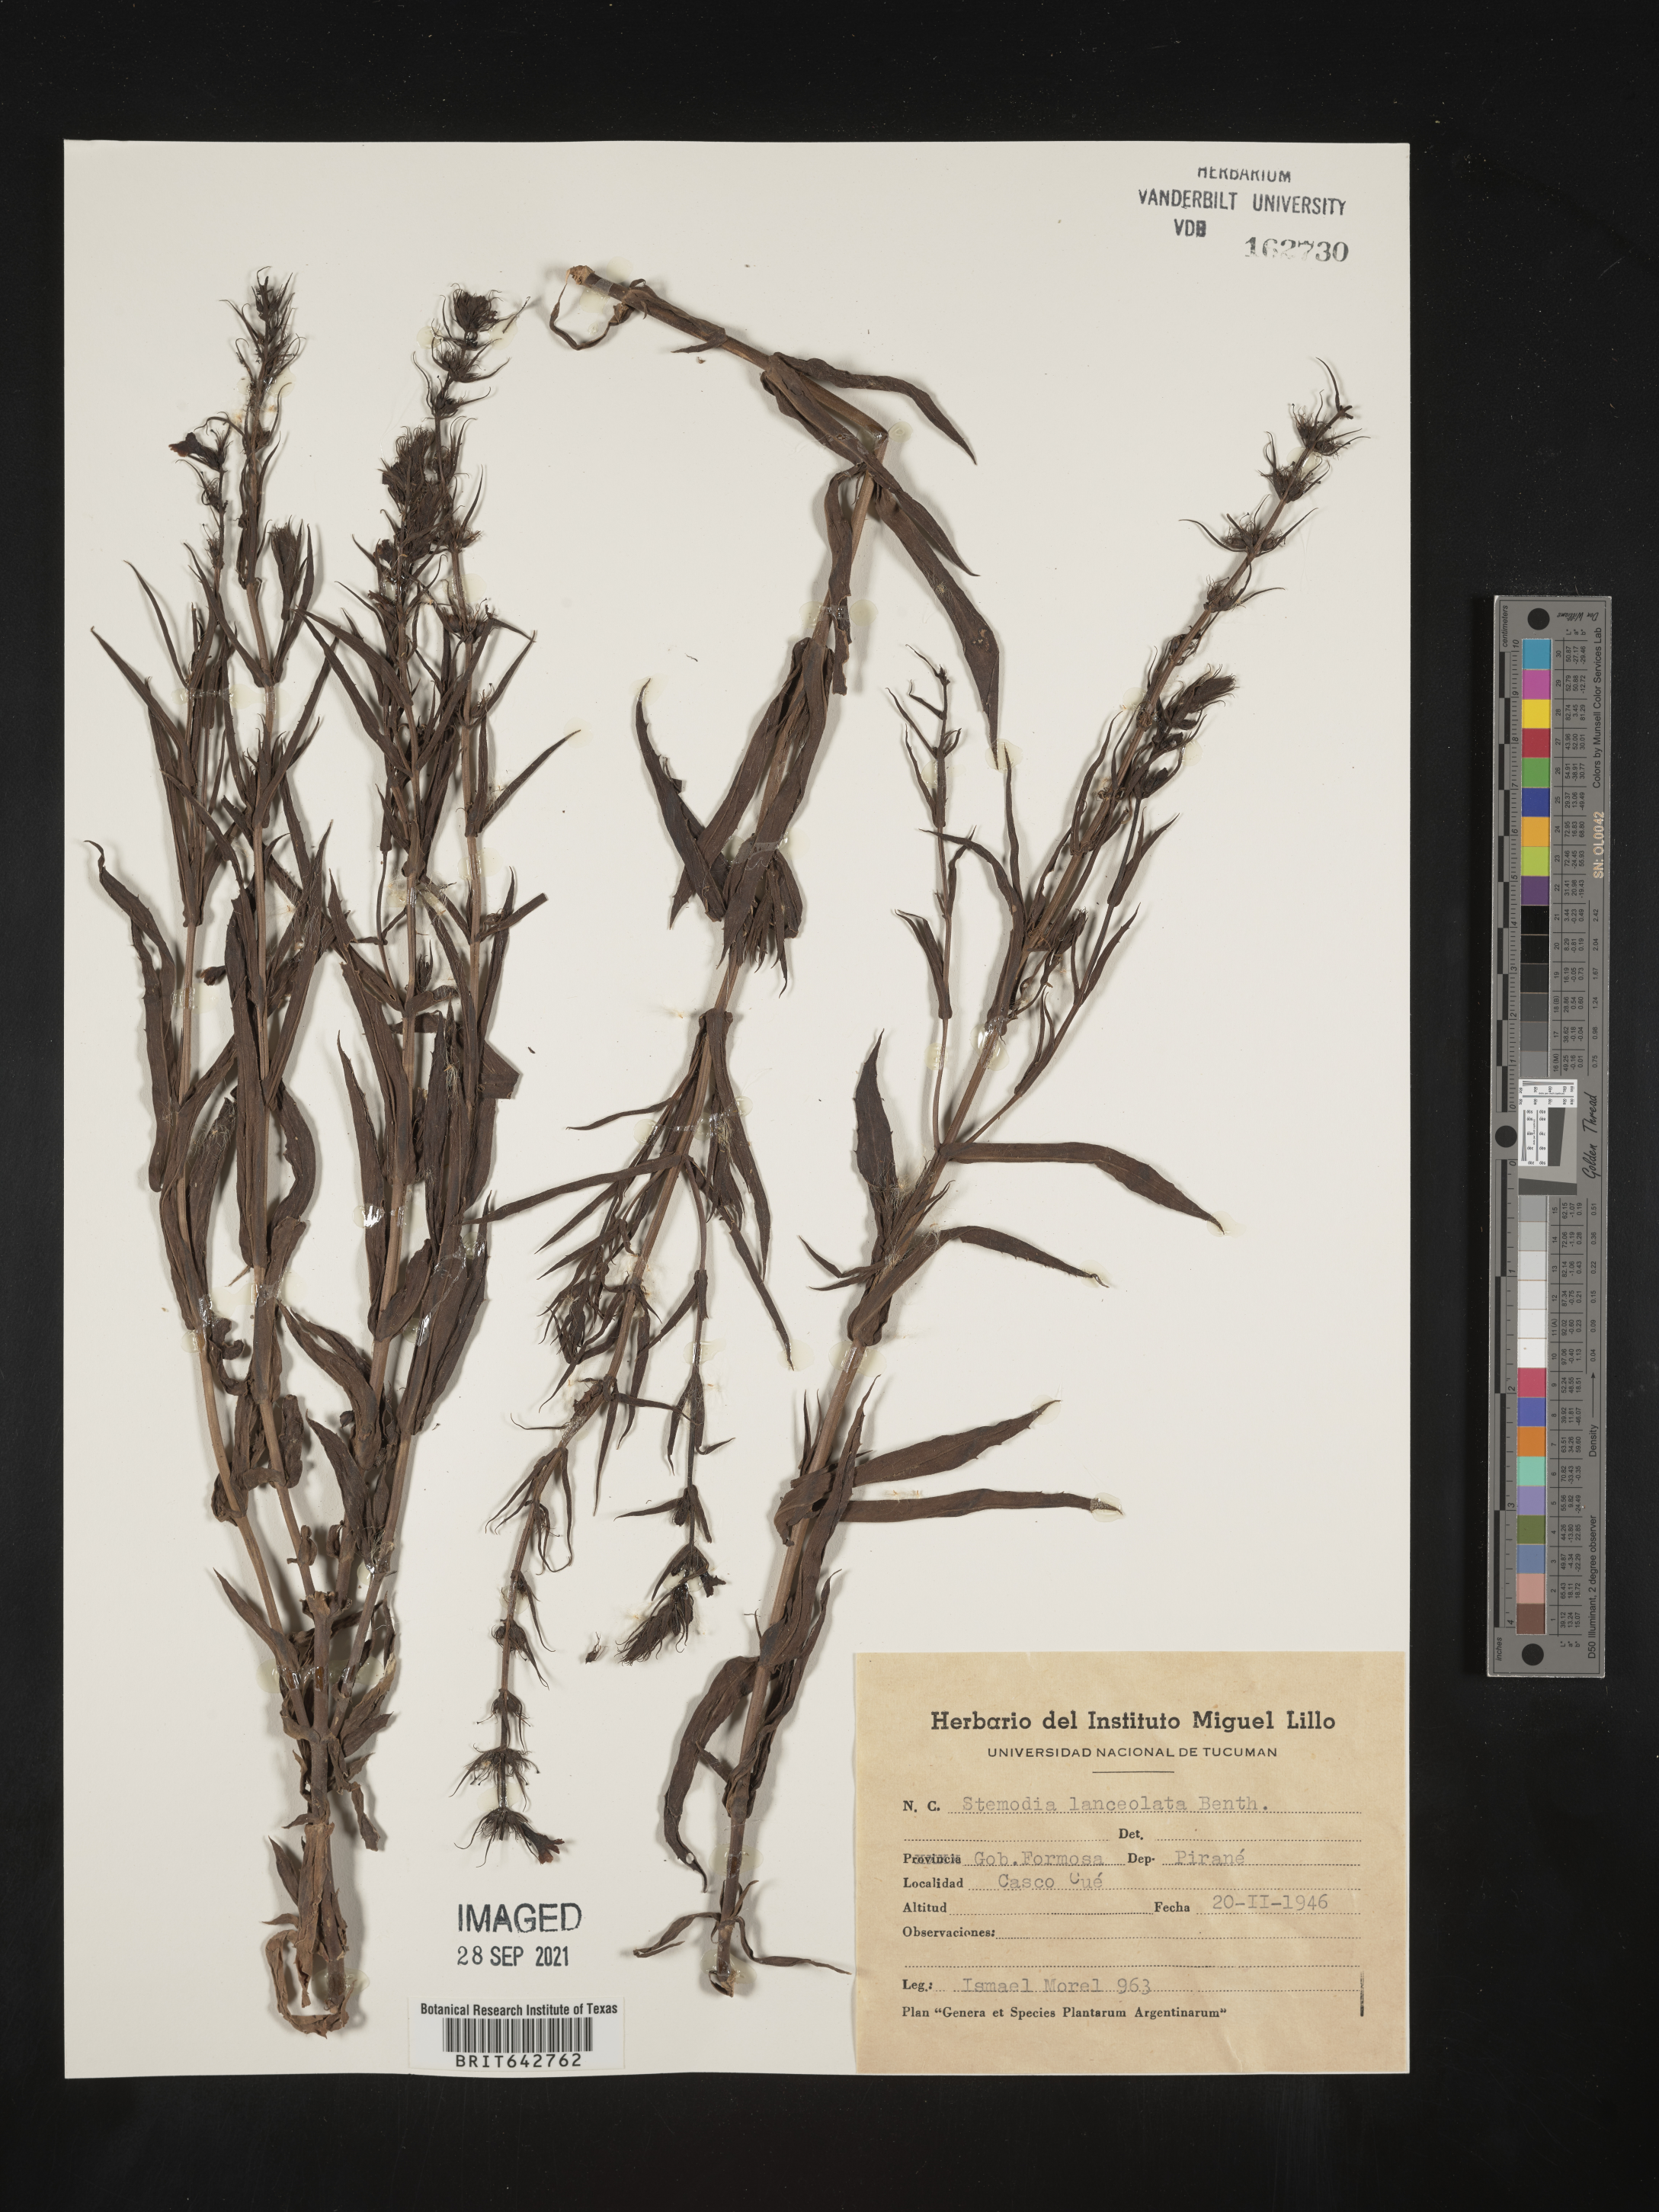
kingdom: Plantae
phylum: Tracheophyta
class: Magnoliopsida
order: Lamiales
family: Plantaginaceae
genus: Stemodia
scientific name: Stemodia
